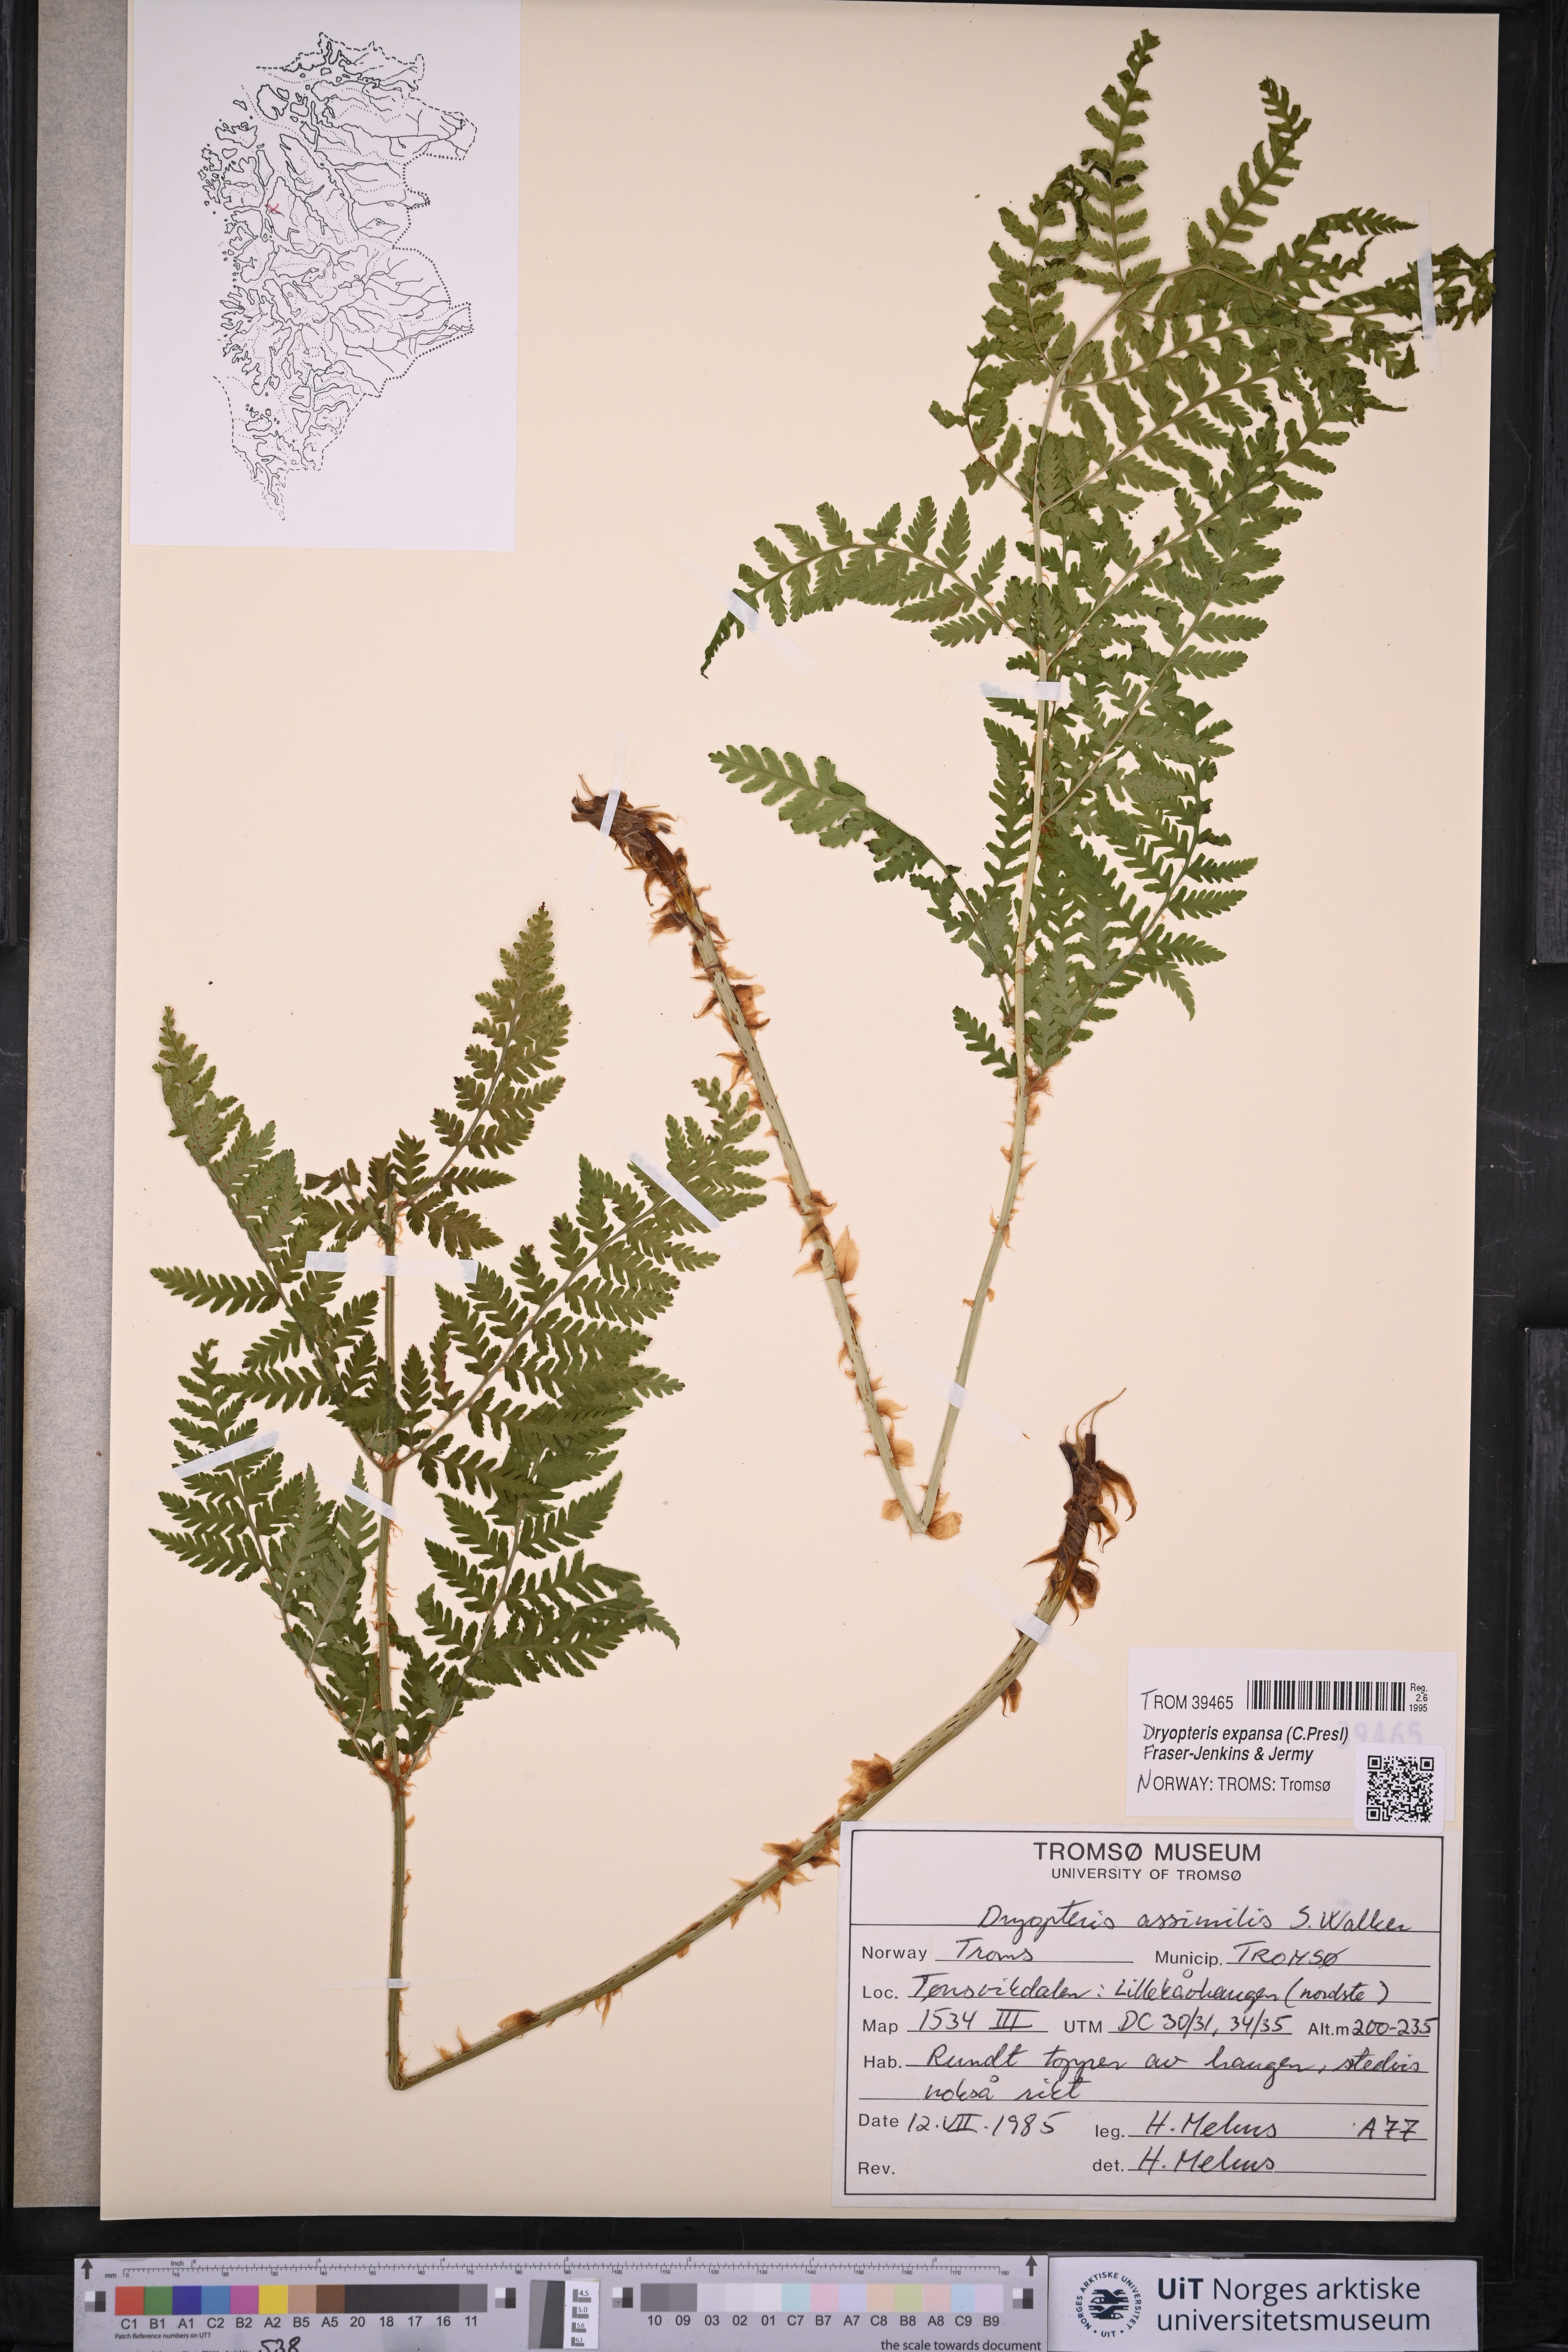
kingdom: Plantae
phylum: Tracheophyta
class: Polypodiopsida
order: Polypodiales
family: Dryopteridaceae
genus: Dryopteris
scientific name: Dryopteris expansa
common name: Northern buckler fern
